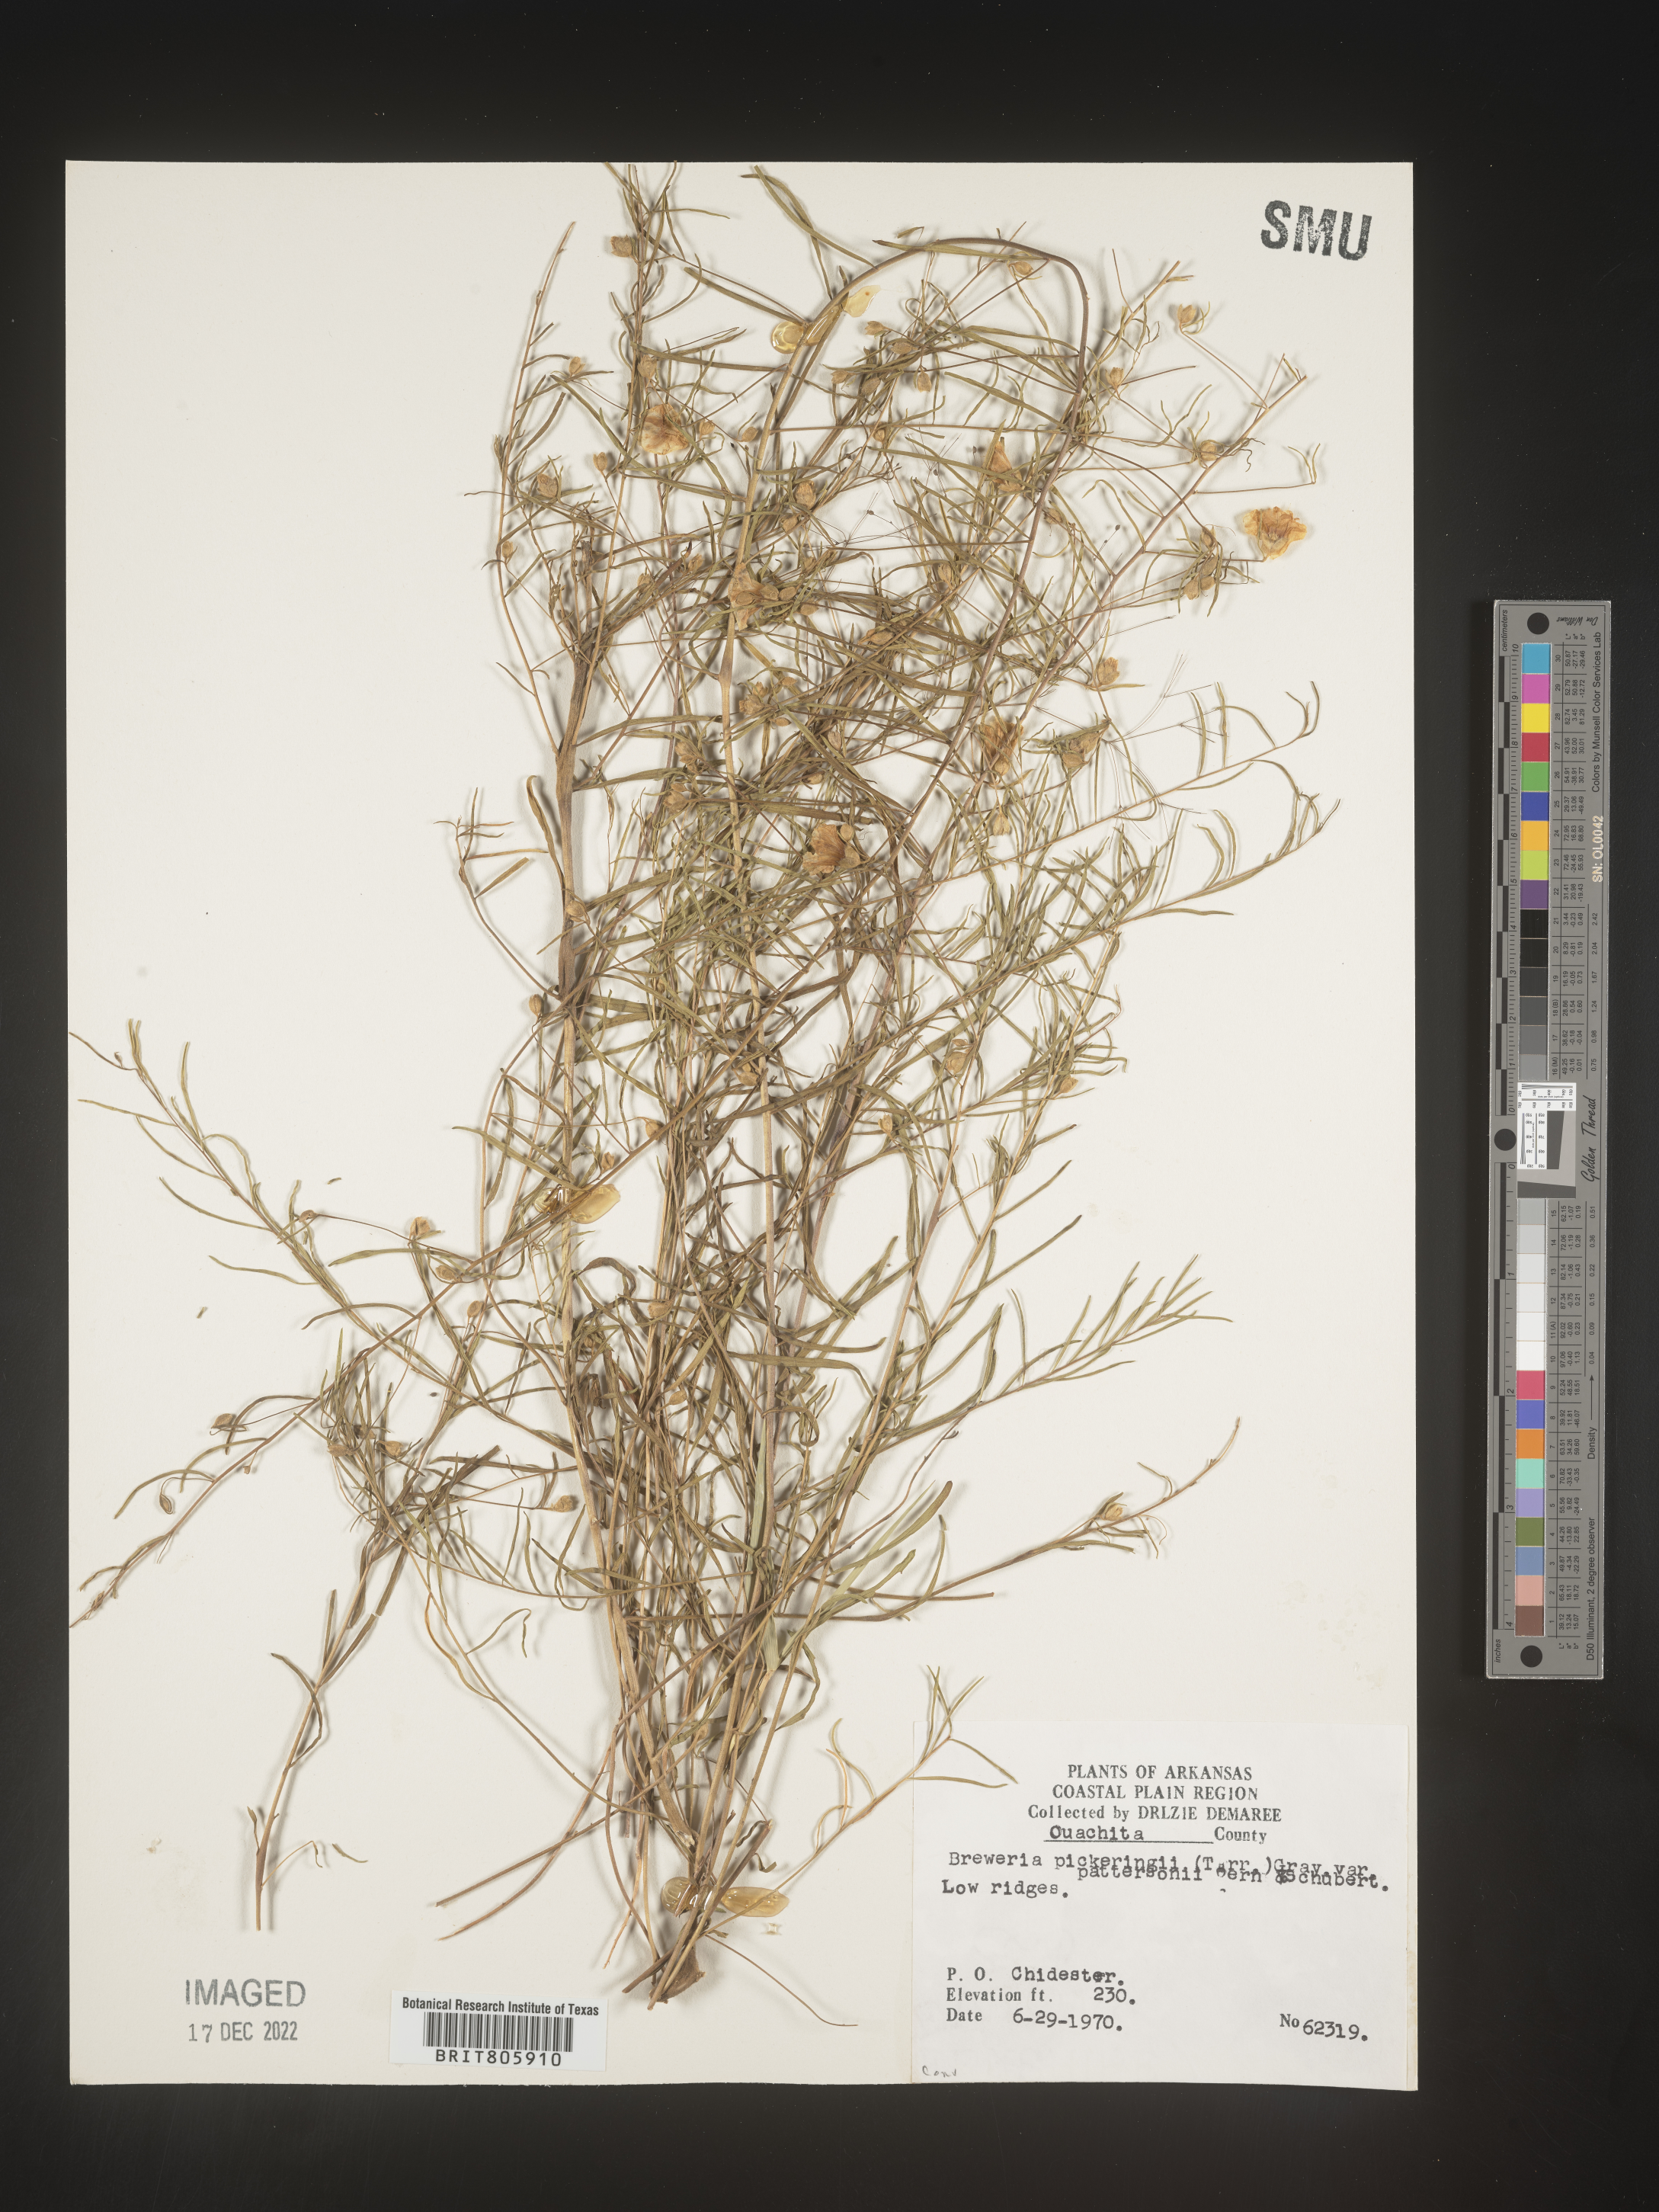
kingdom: Plantae
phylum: Tracheophyta
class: Magnoliopsida
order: Solanales
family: Convolvulaceae
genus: Stylisma
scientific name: Stylisma
